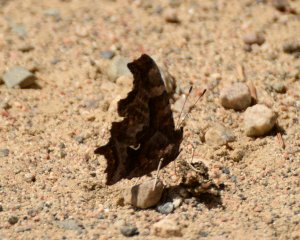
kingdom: Animalia
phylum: Arthropoda
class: Insecta
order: Lepidoptera
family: Nymphalidae
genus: Polygonia
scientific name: Polygonia comma
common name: Eastern Comma
